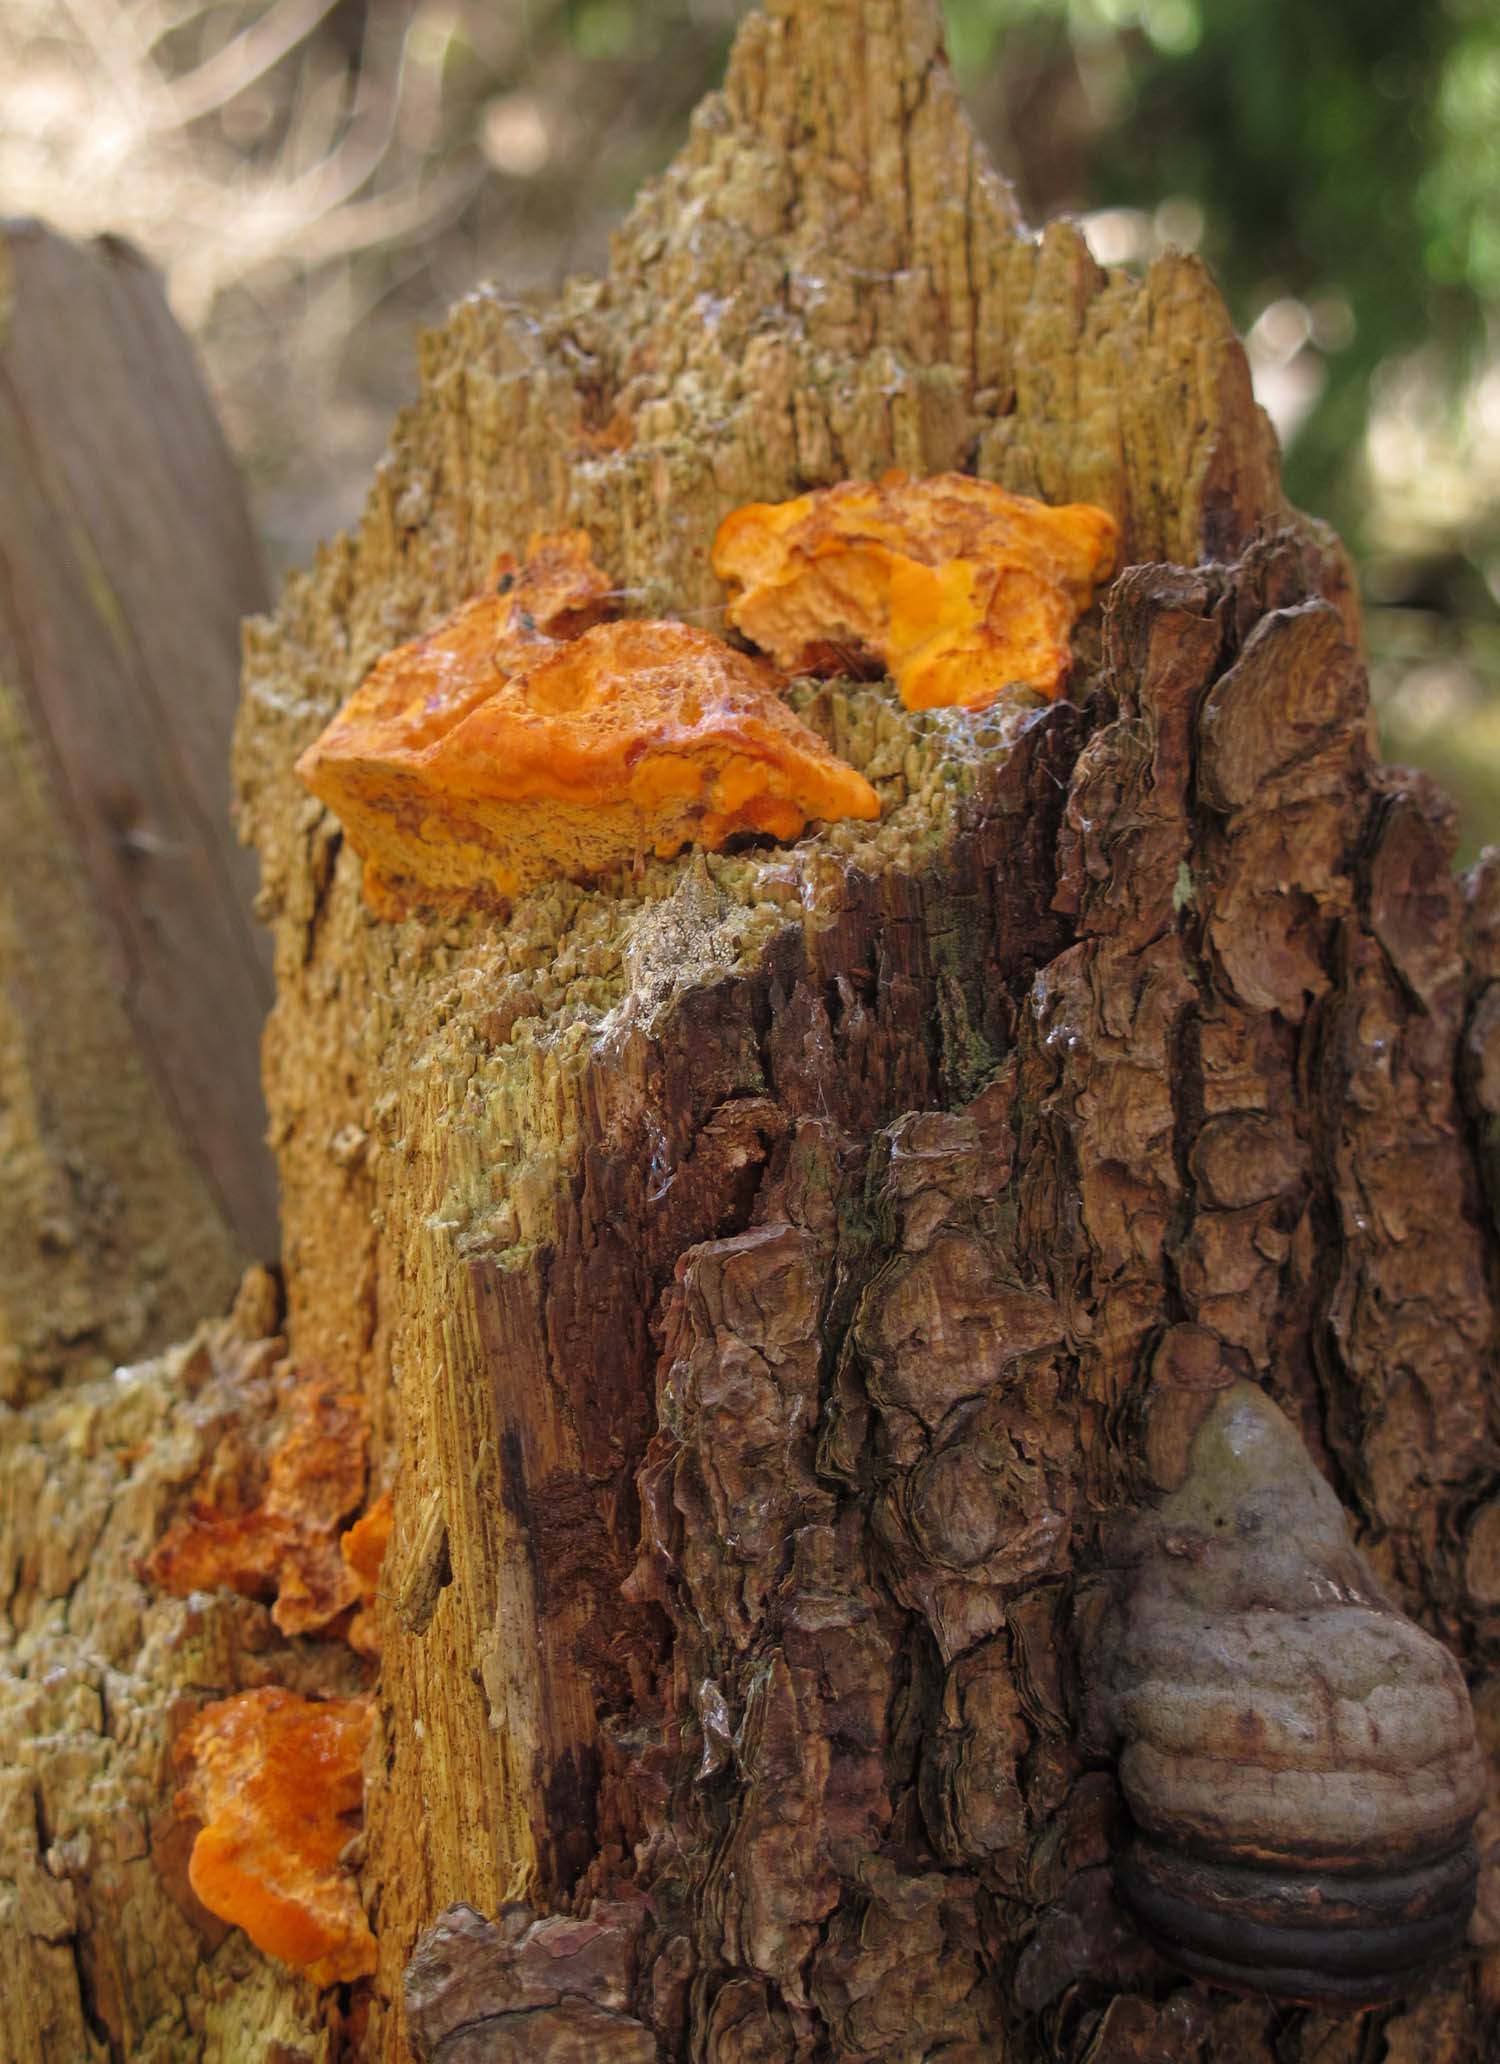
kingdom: Fungi
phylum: Basidiomycota
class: Agaricomycetes
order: Polyporales
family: Pycnoporellaceae
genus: Pycnoporellus
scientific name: Pycnoporellus fulgens
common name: flammeporesvamp
